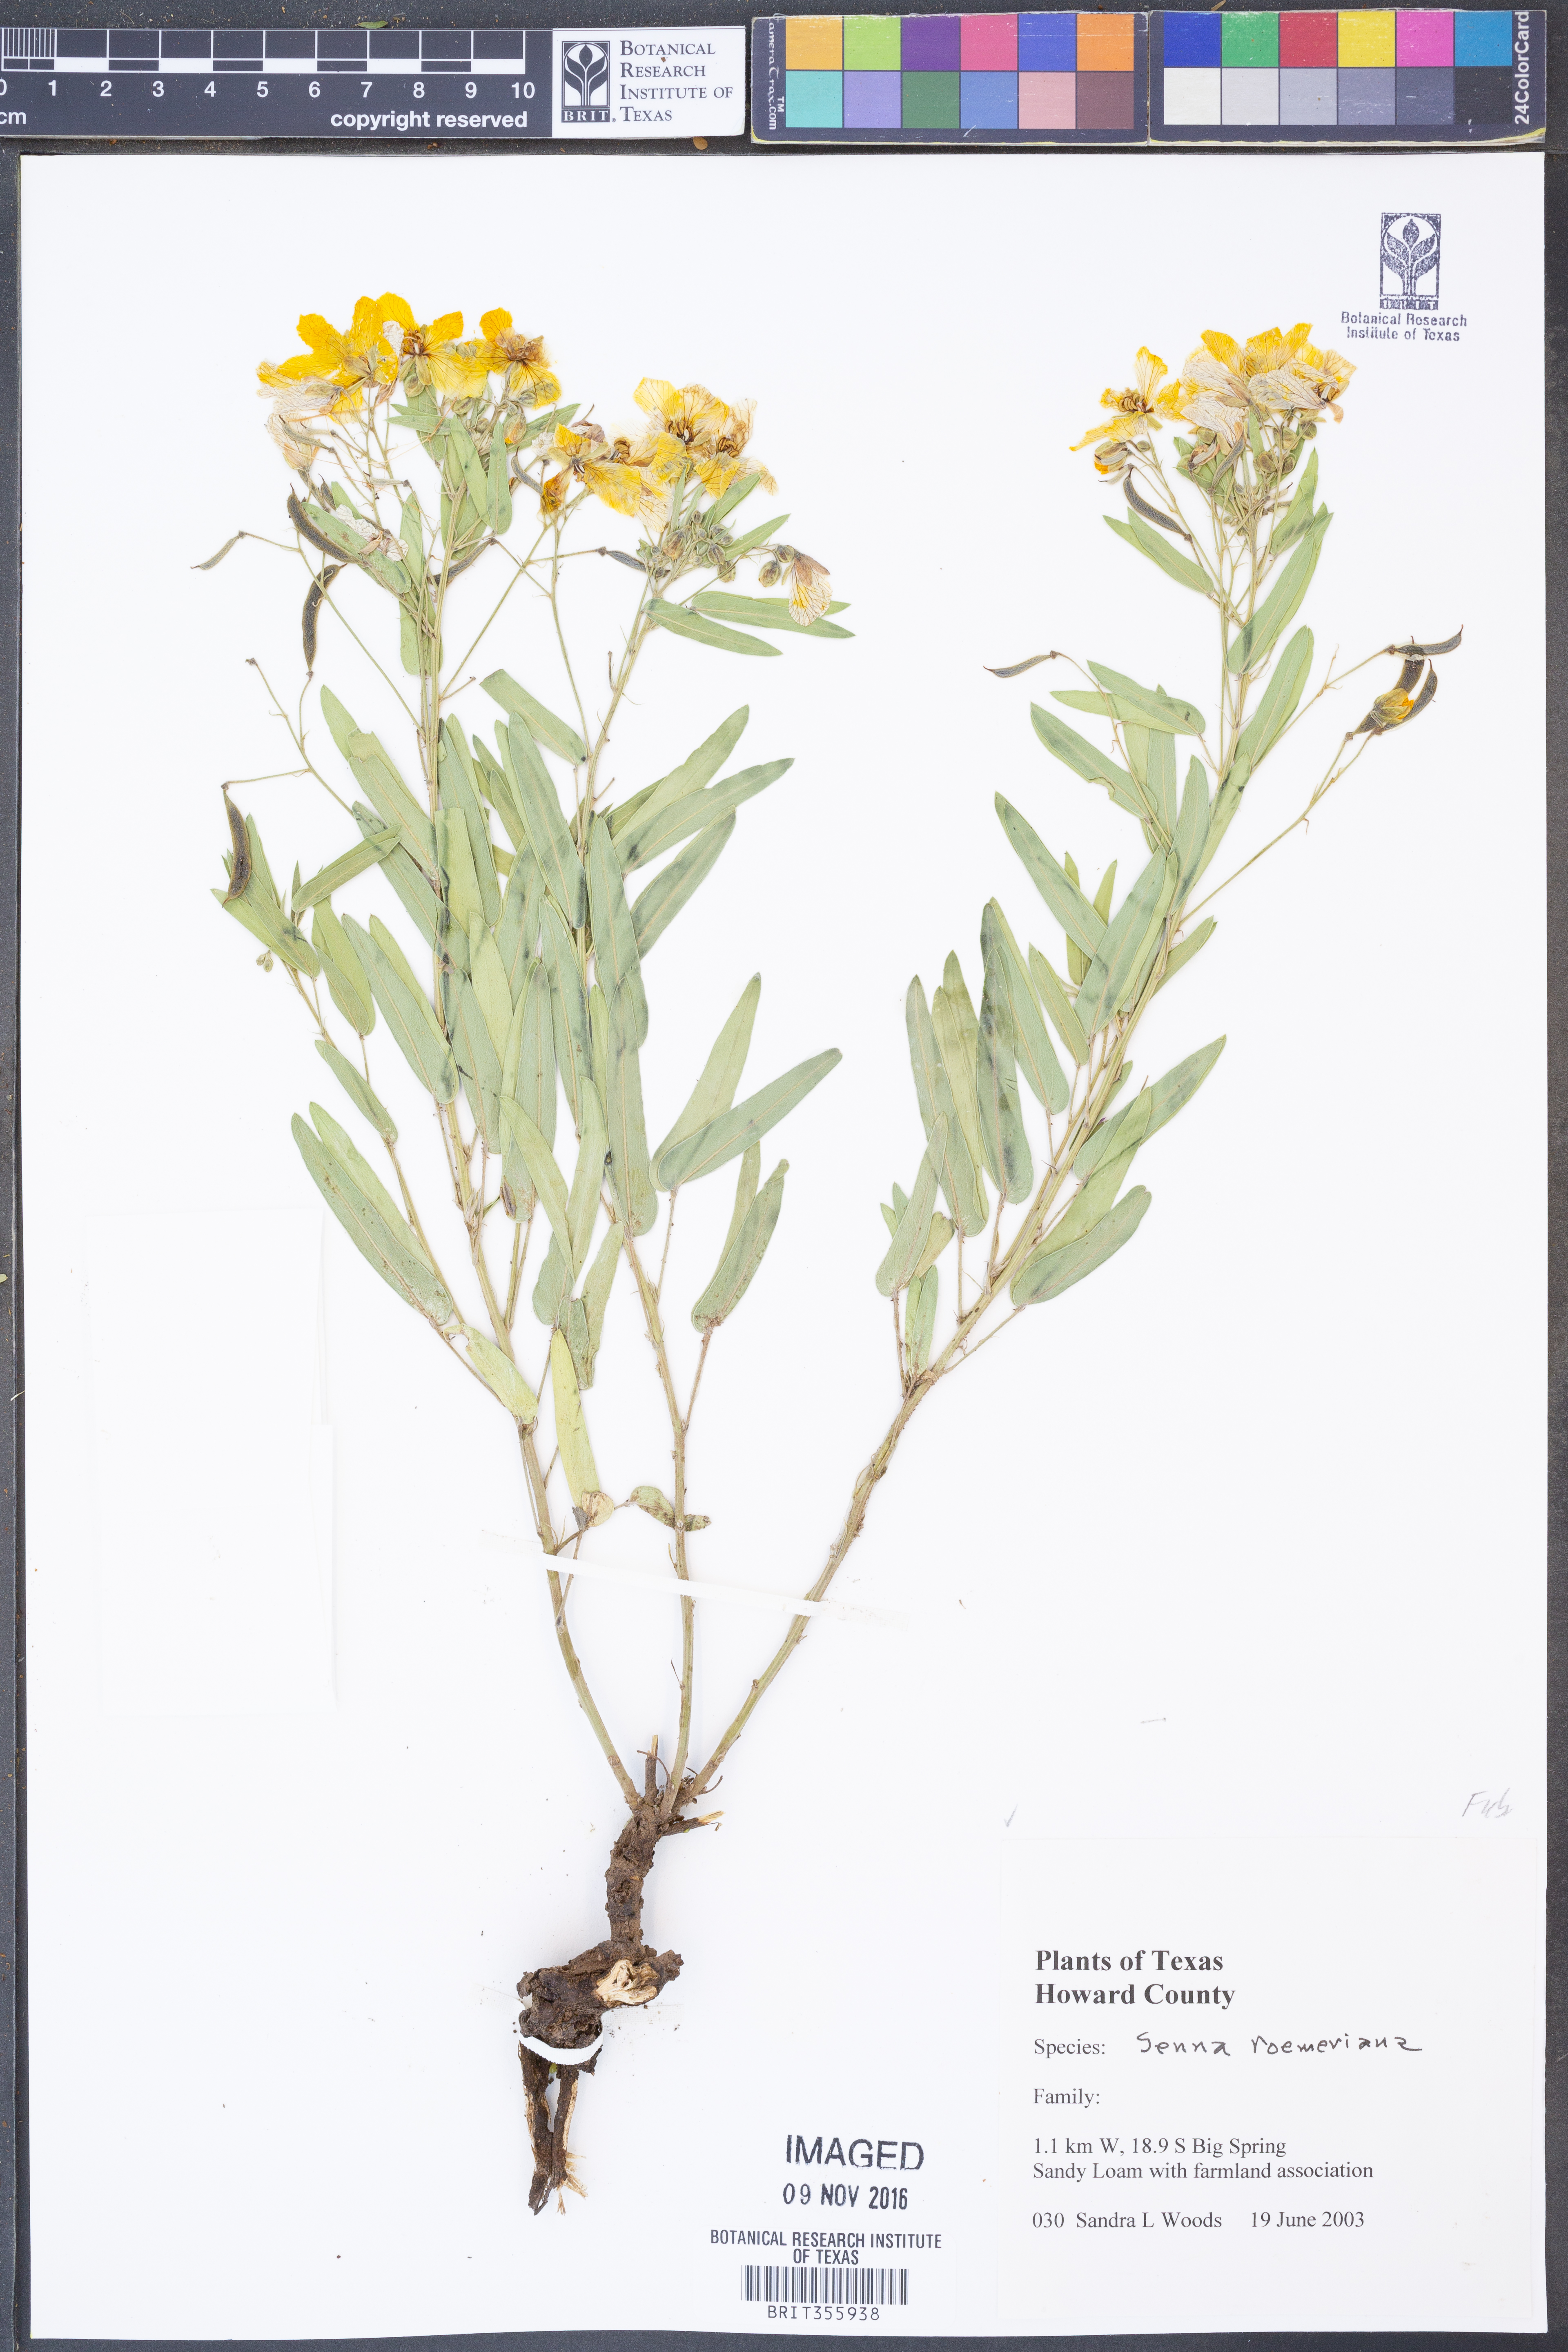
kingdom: Plantae
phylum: Tracheophyta
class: Magnoliopsida
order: Fabales
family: Fabaceae
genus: Senna
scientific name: Senna roemeriana
